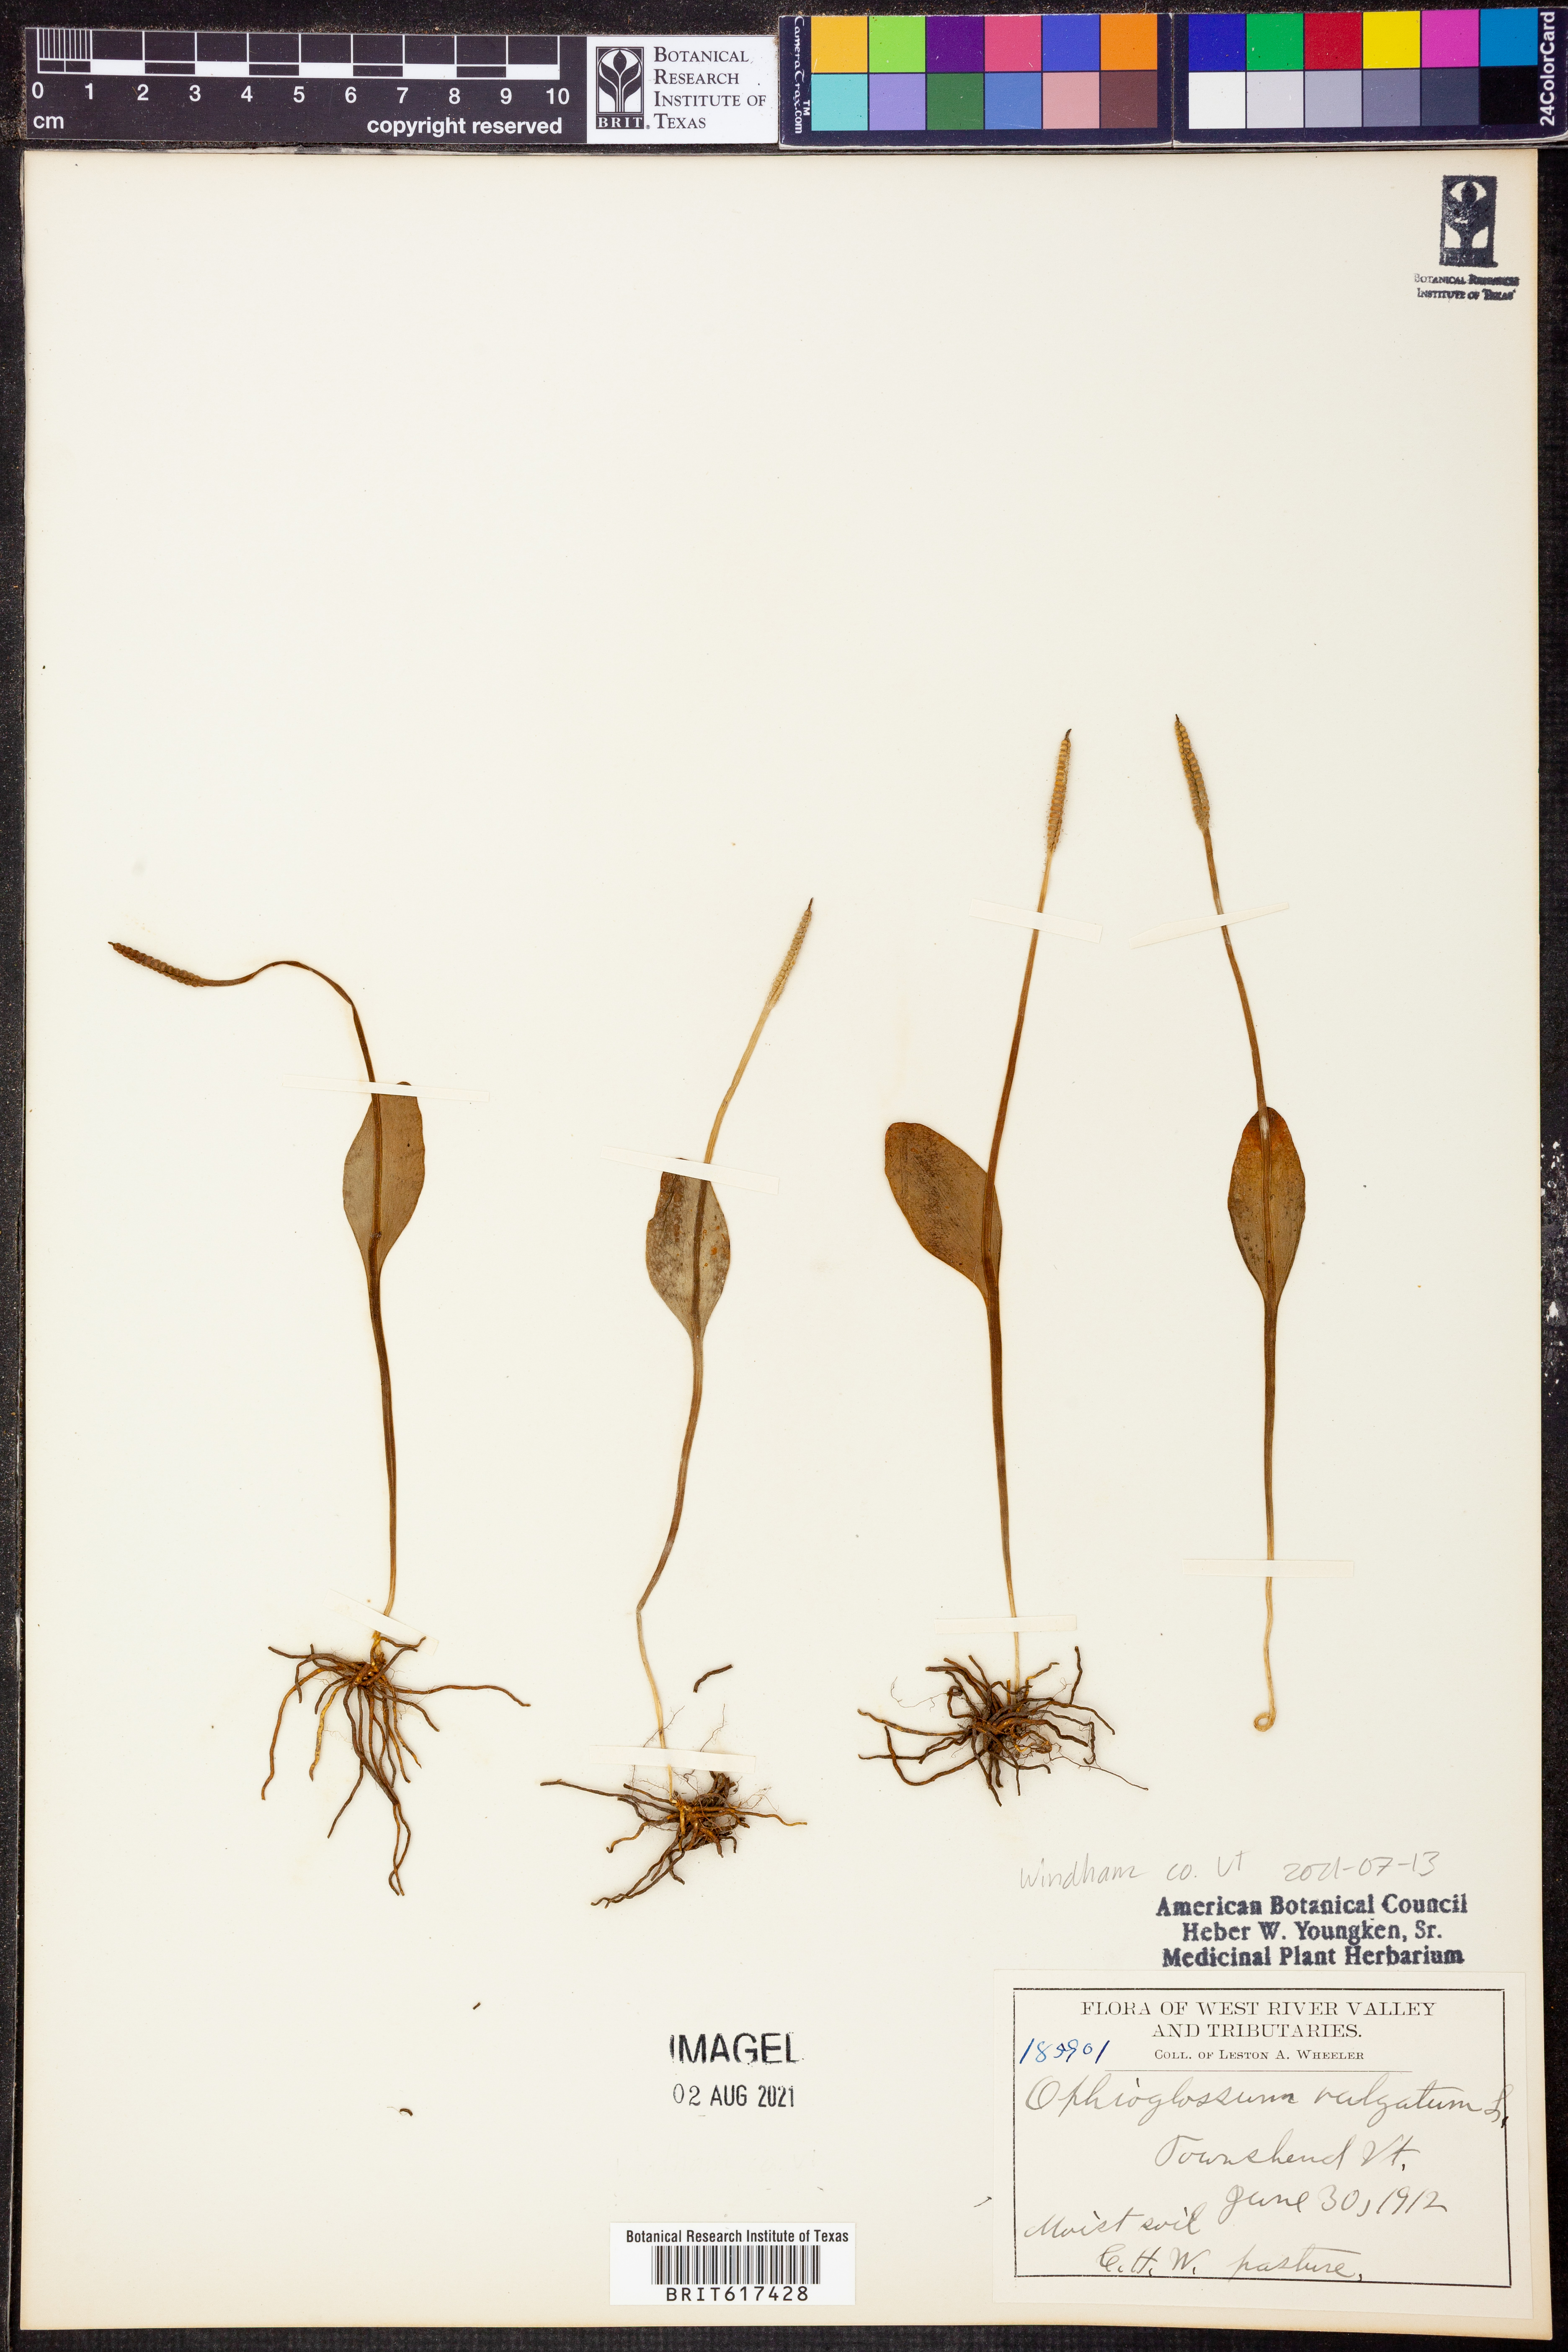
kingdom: Plantae
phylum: Tracheophyta
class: Polypodiopsida
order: Ophioglossales
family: Ophioglossaceae
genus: Ophioglossum
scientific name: Ophioglossum vulgatum
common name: Adder's-tongue
